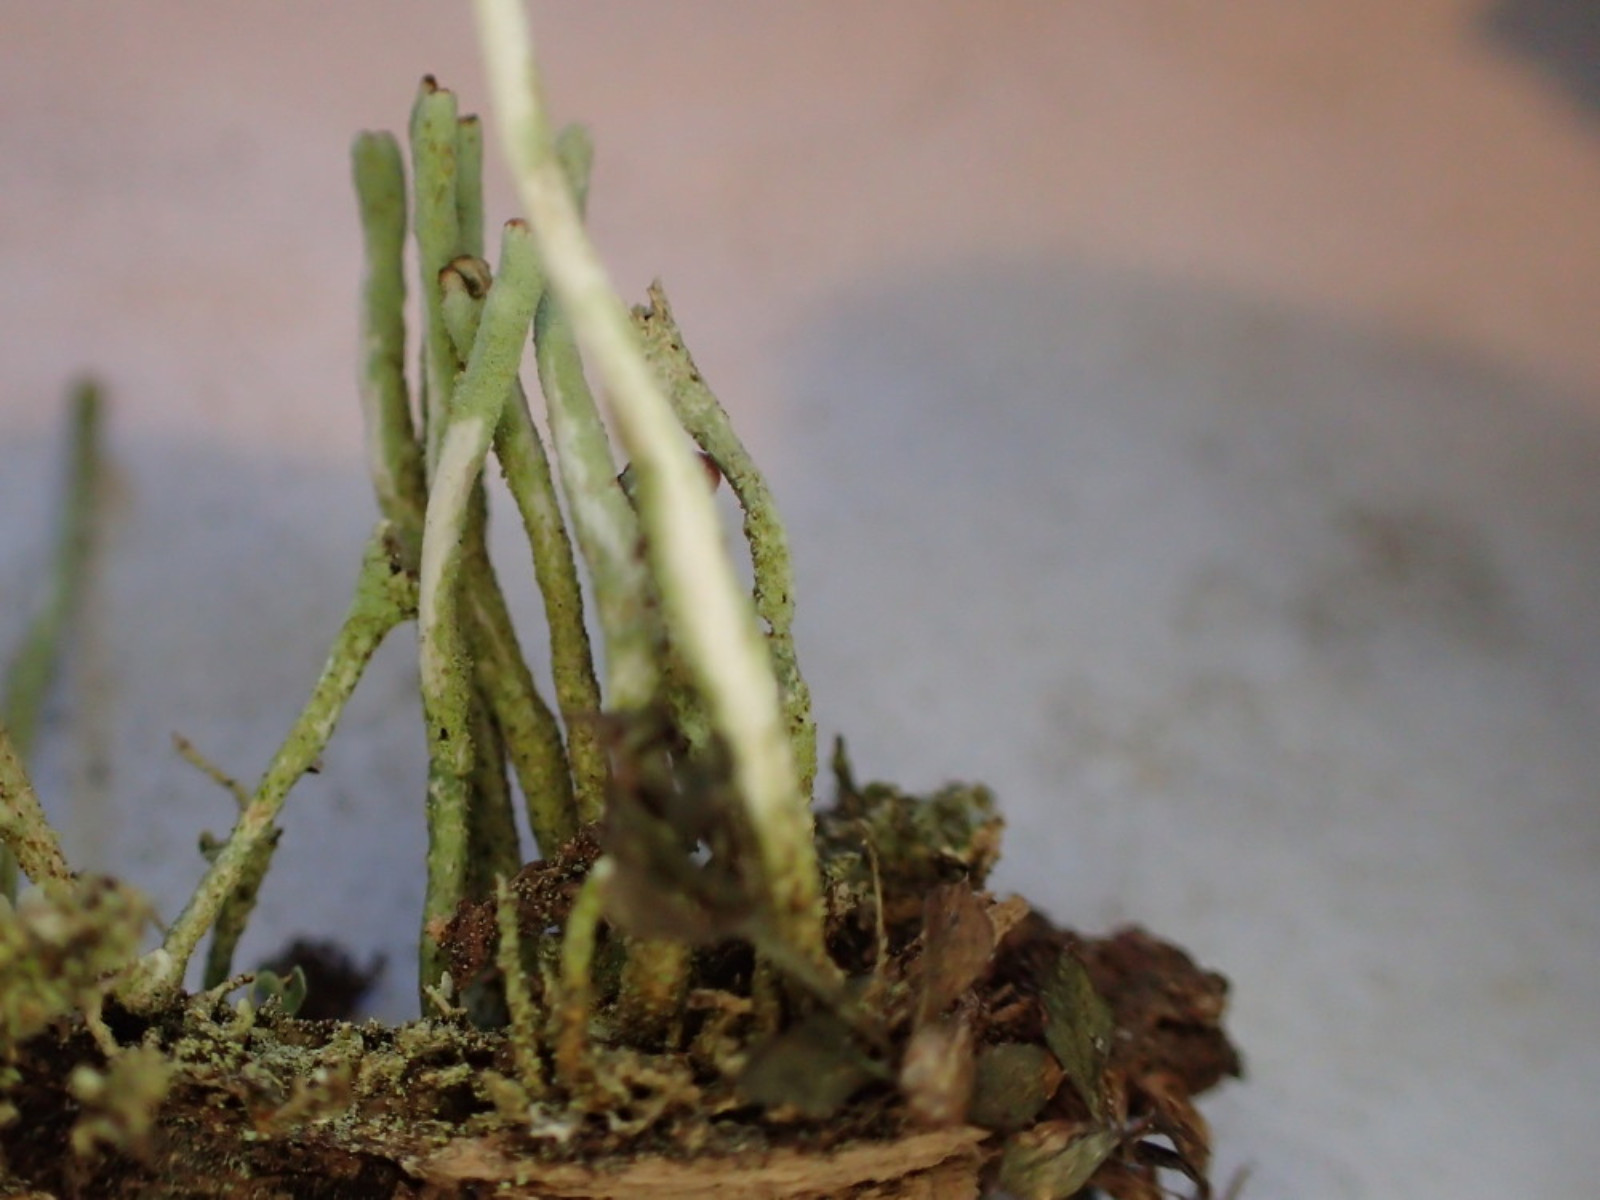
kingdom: Fungi
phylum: Ascomycota
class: Lecanoromycetes
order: Lecanorales
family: Cladoniaceae
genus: Cladonia
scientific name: Cladonia ochrochlora
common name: stød-bægerlav
